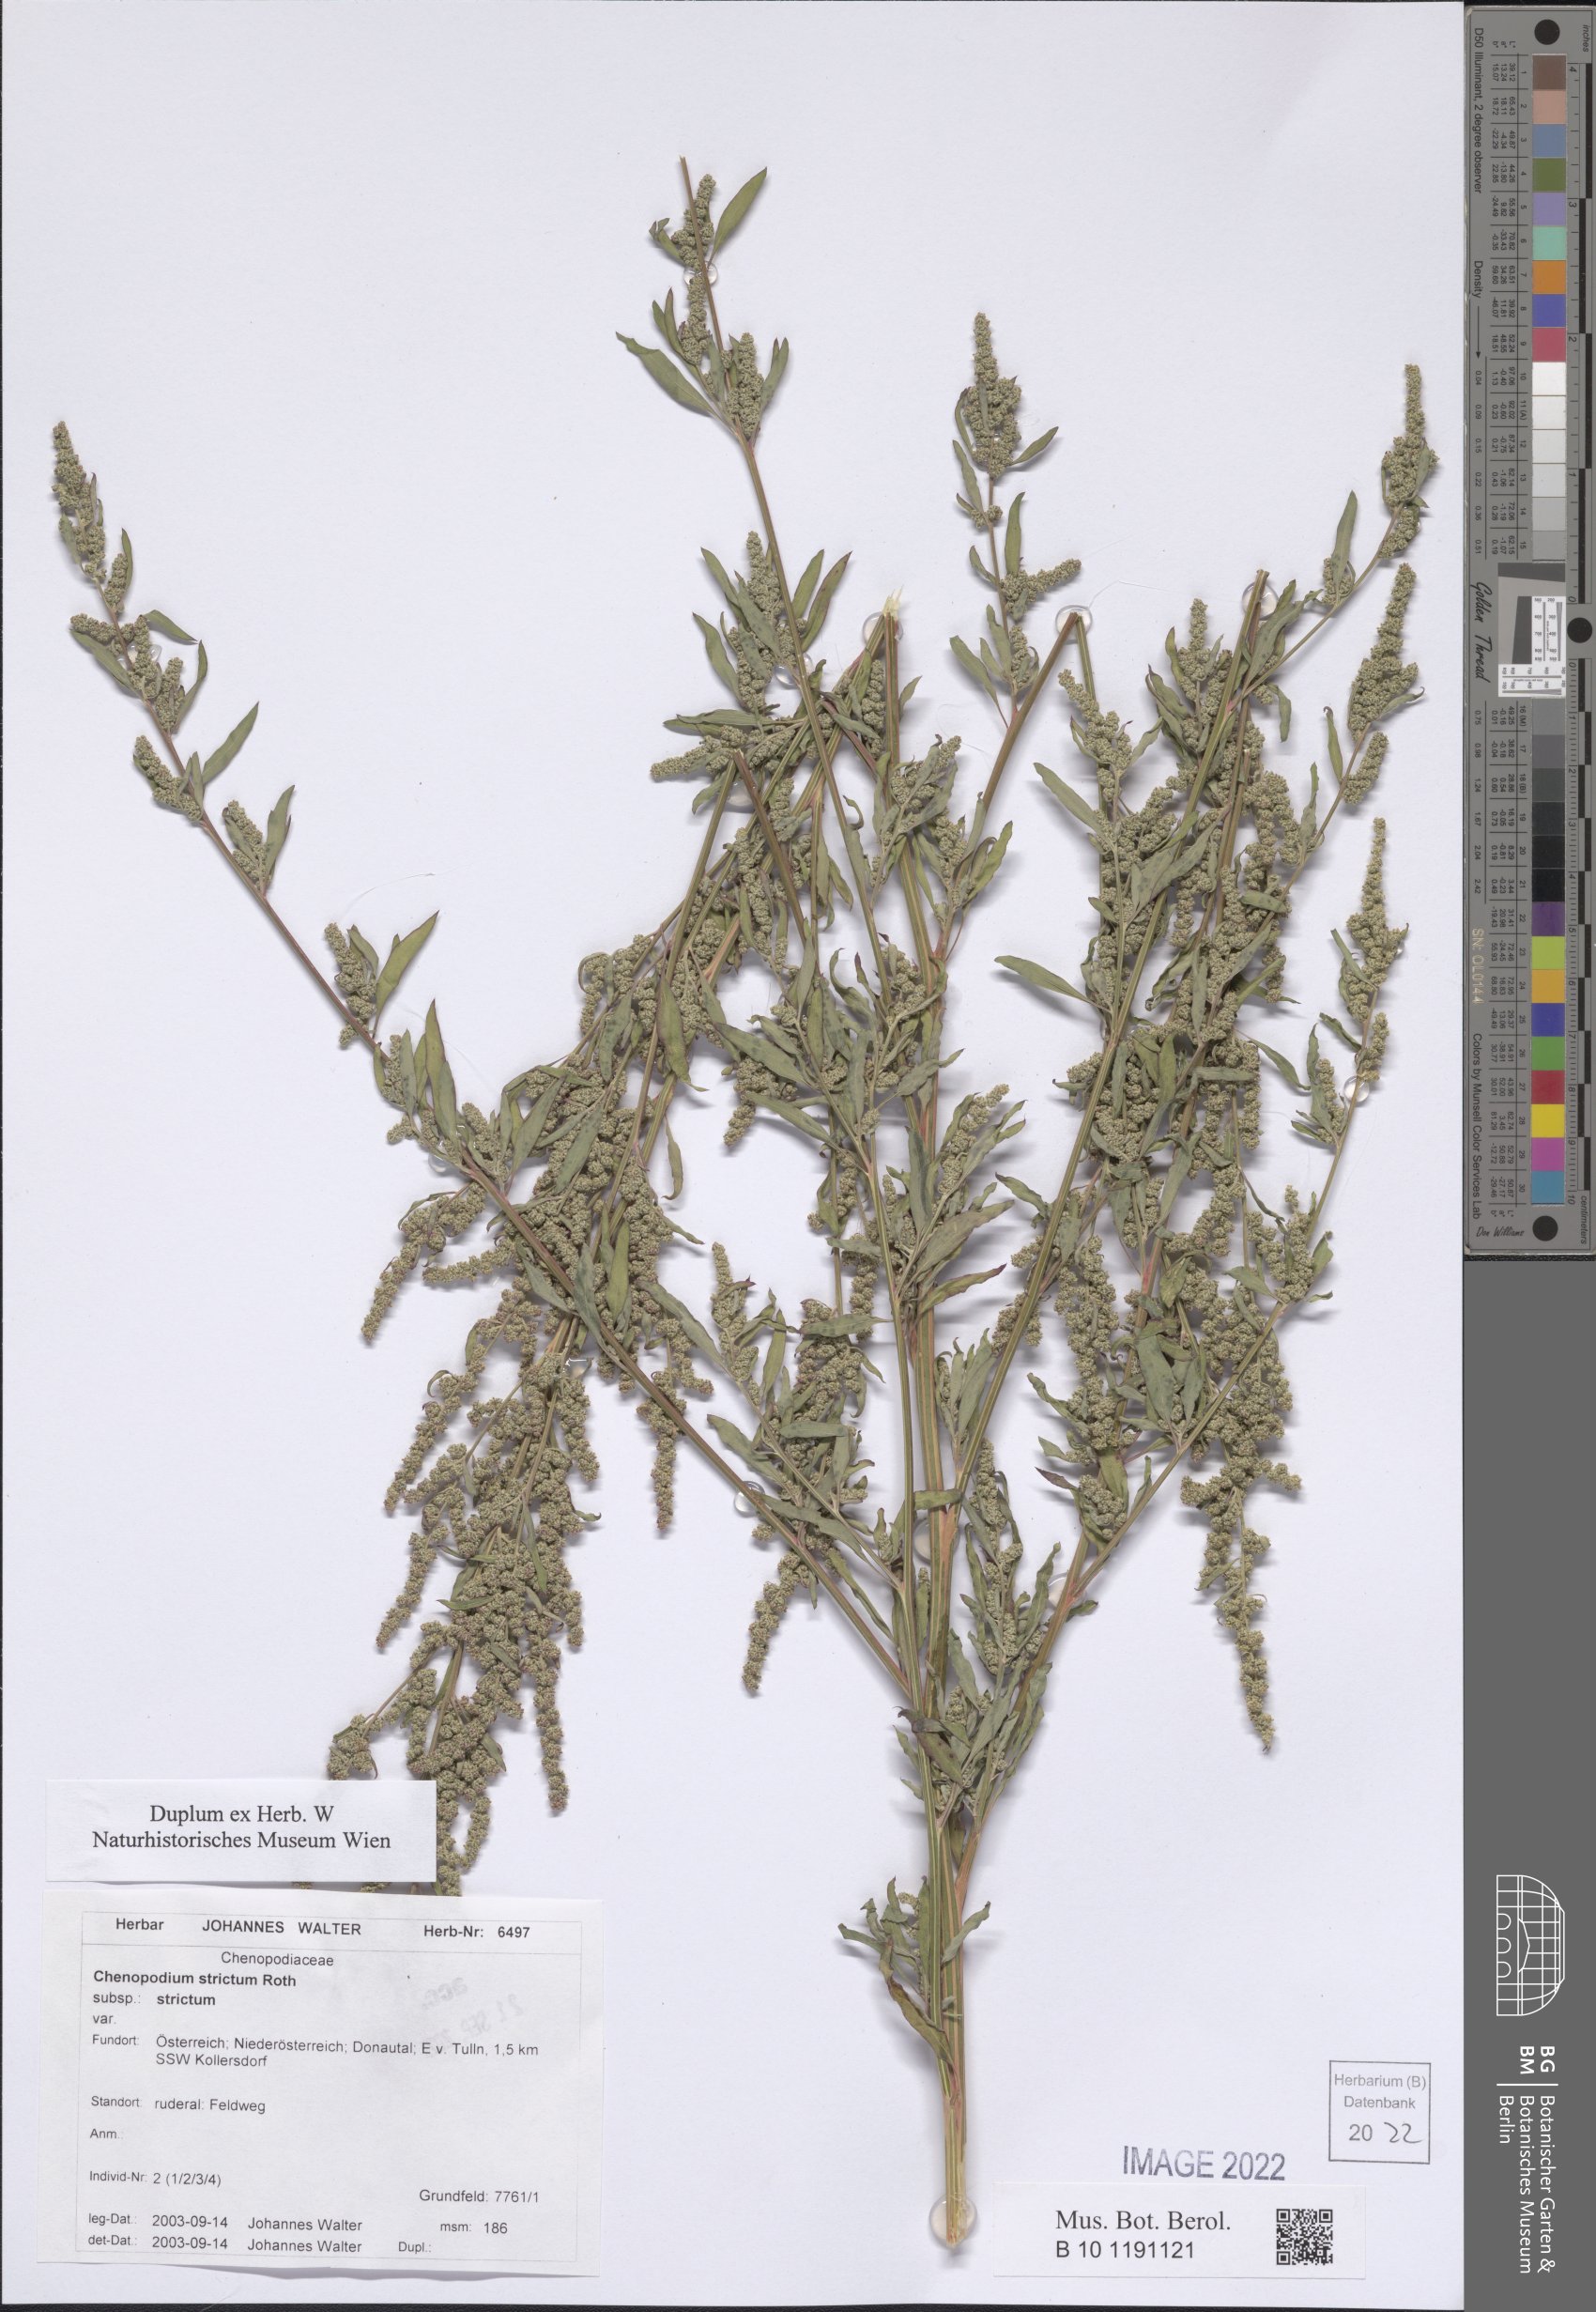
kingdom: Plantae
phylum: Tracheophyta
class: Magnoliopsida
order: Caryophyllales
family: Amaranthaceae
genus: Chenopodium
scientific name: Chenopodium album
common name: Fat-hen
